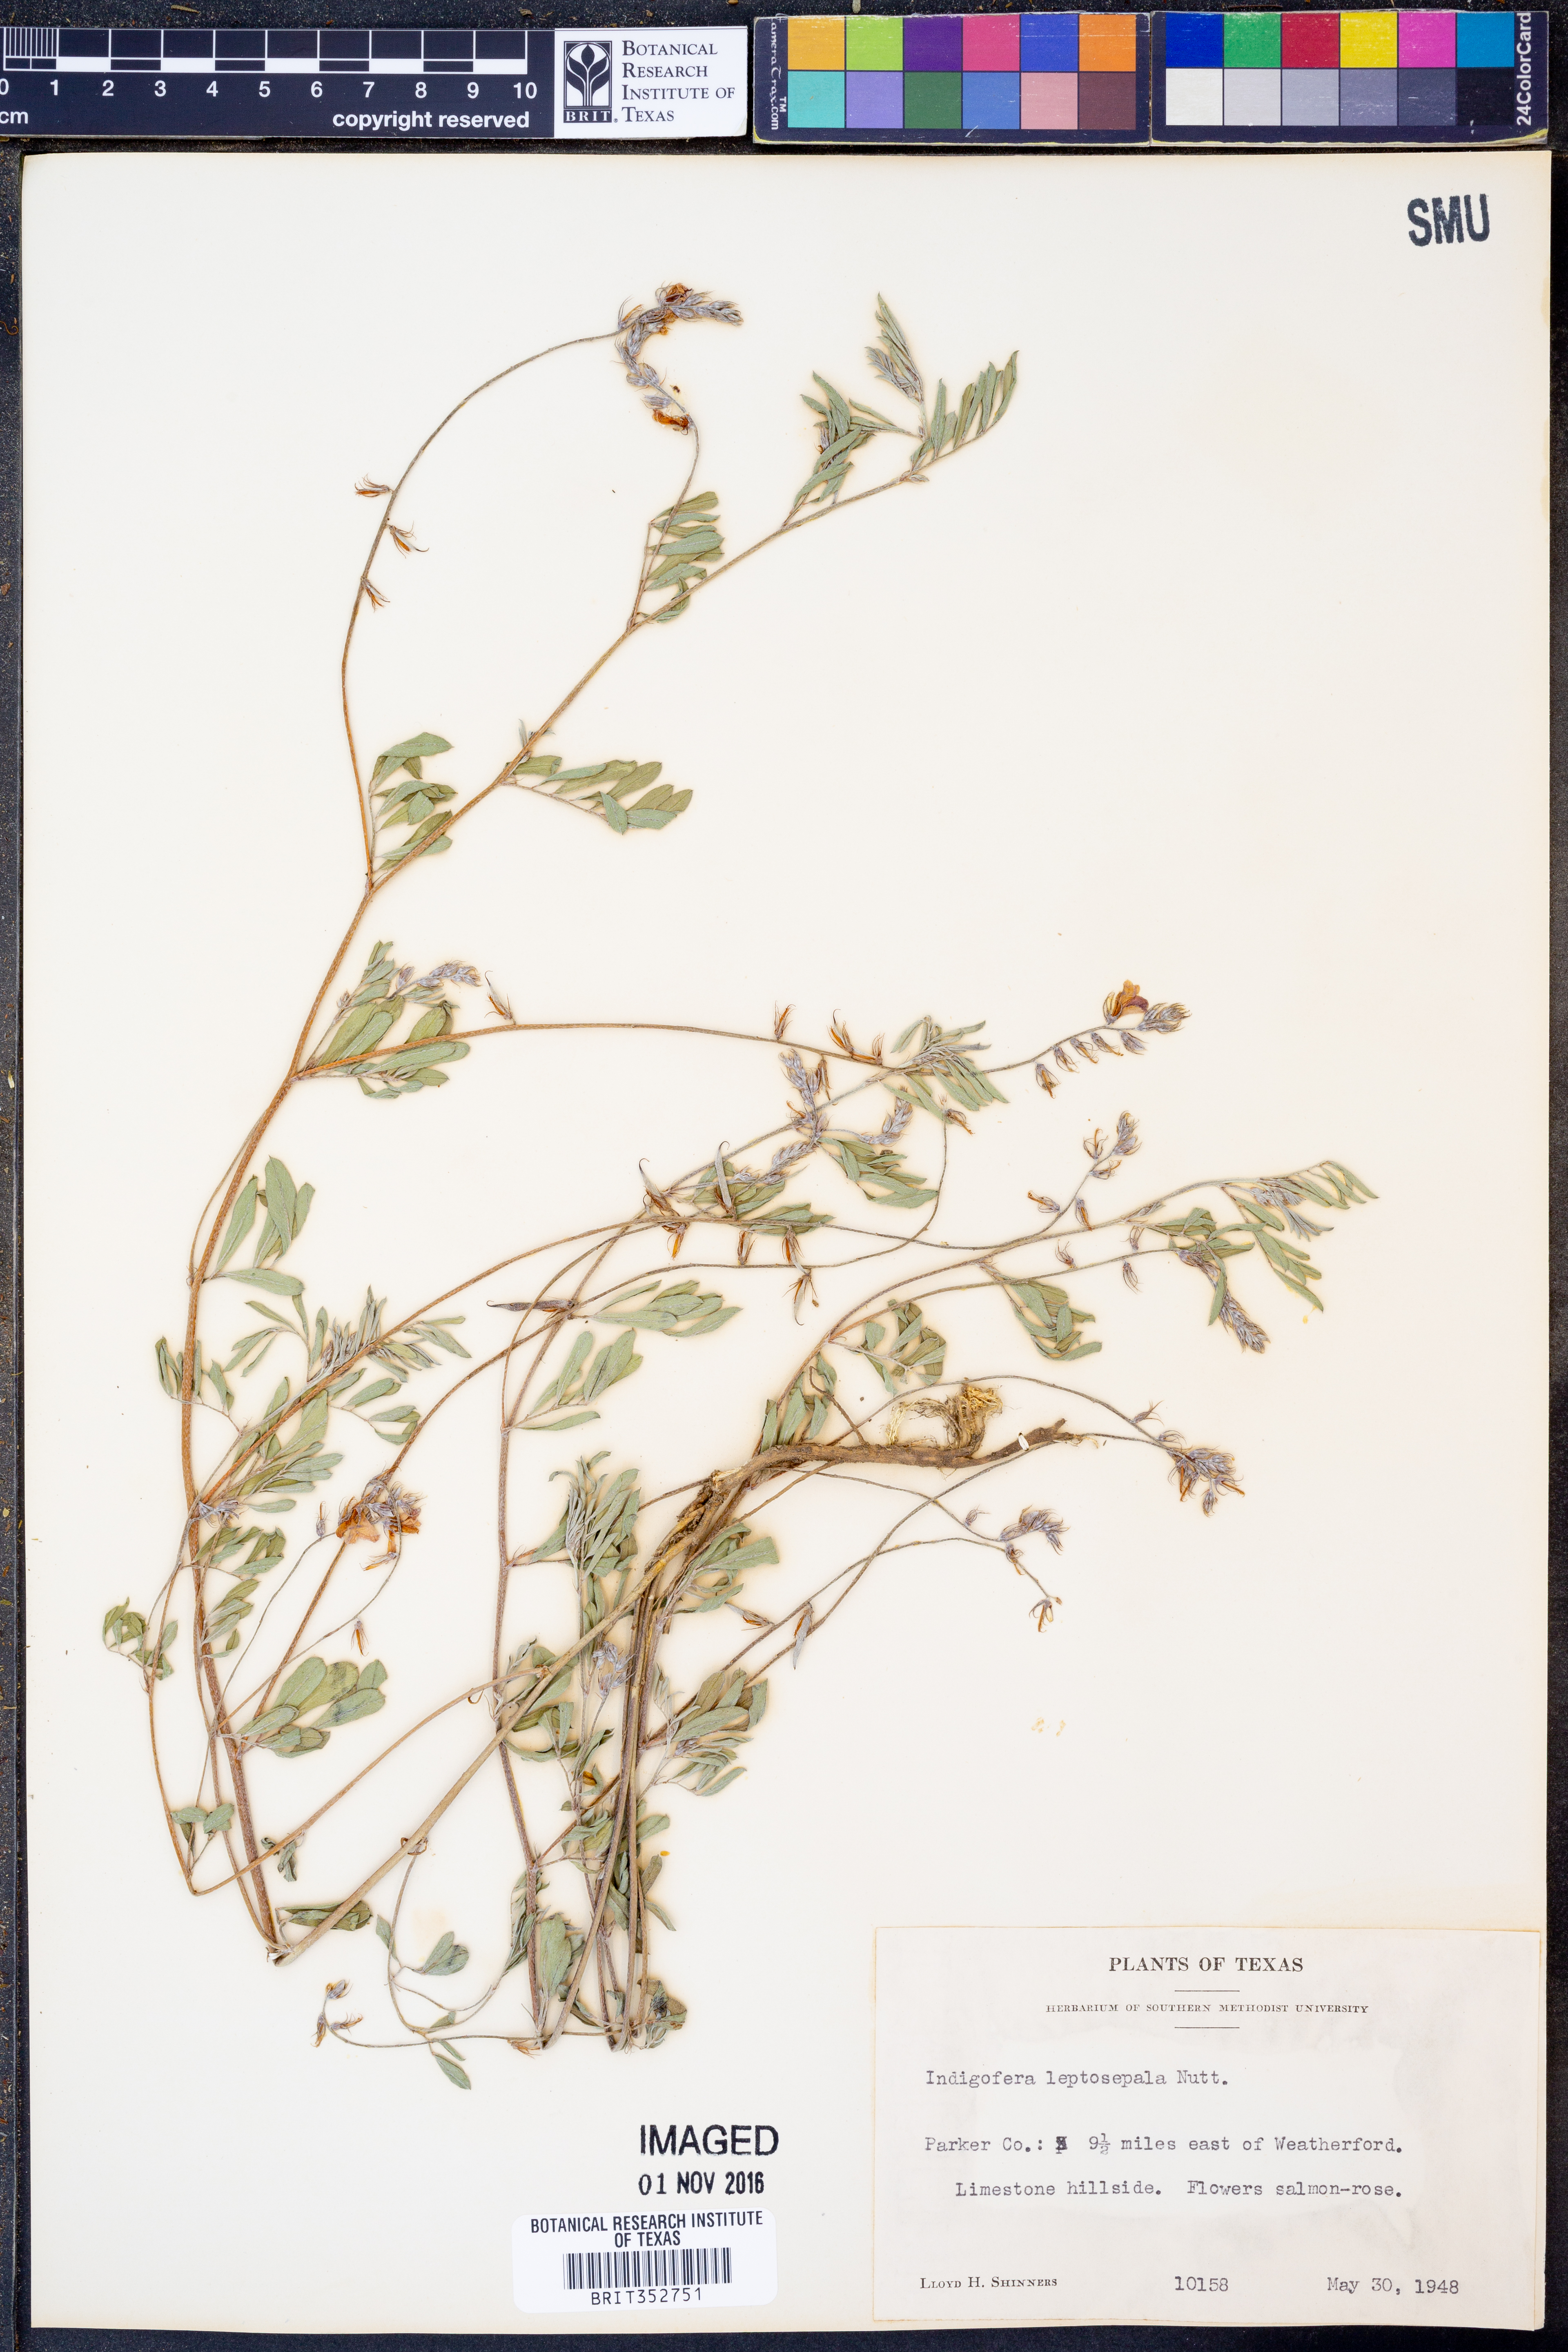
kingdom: Plantae
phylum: Tracheophyta
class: Magnoliopsida
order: Fabales
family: Fabaceae
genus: Indigofera
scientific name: Indigofera argutidens
